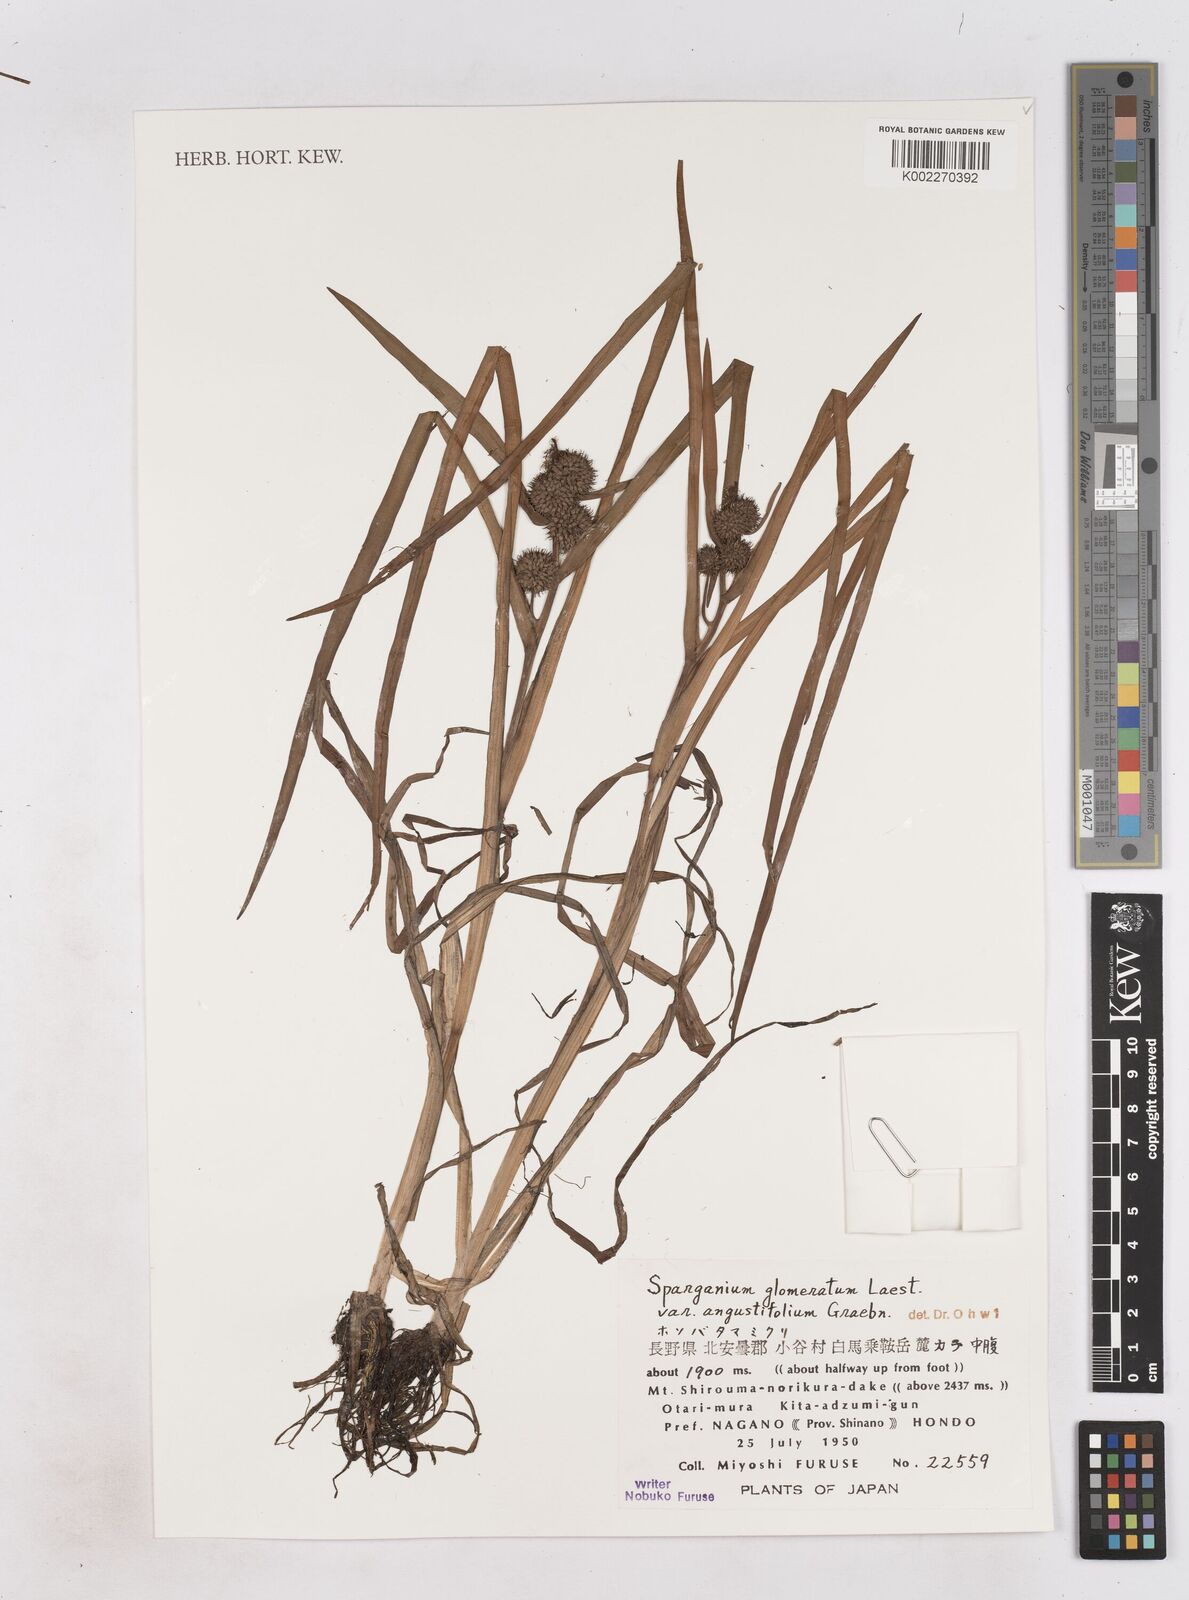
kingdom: Plantae
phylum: Tracheophyta
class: Liliopsida
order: Poales
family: Typhaceae
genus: Sparganium
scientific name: Sparganium glomeratum
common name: Clustered burreed
